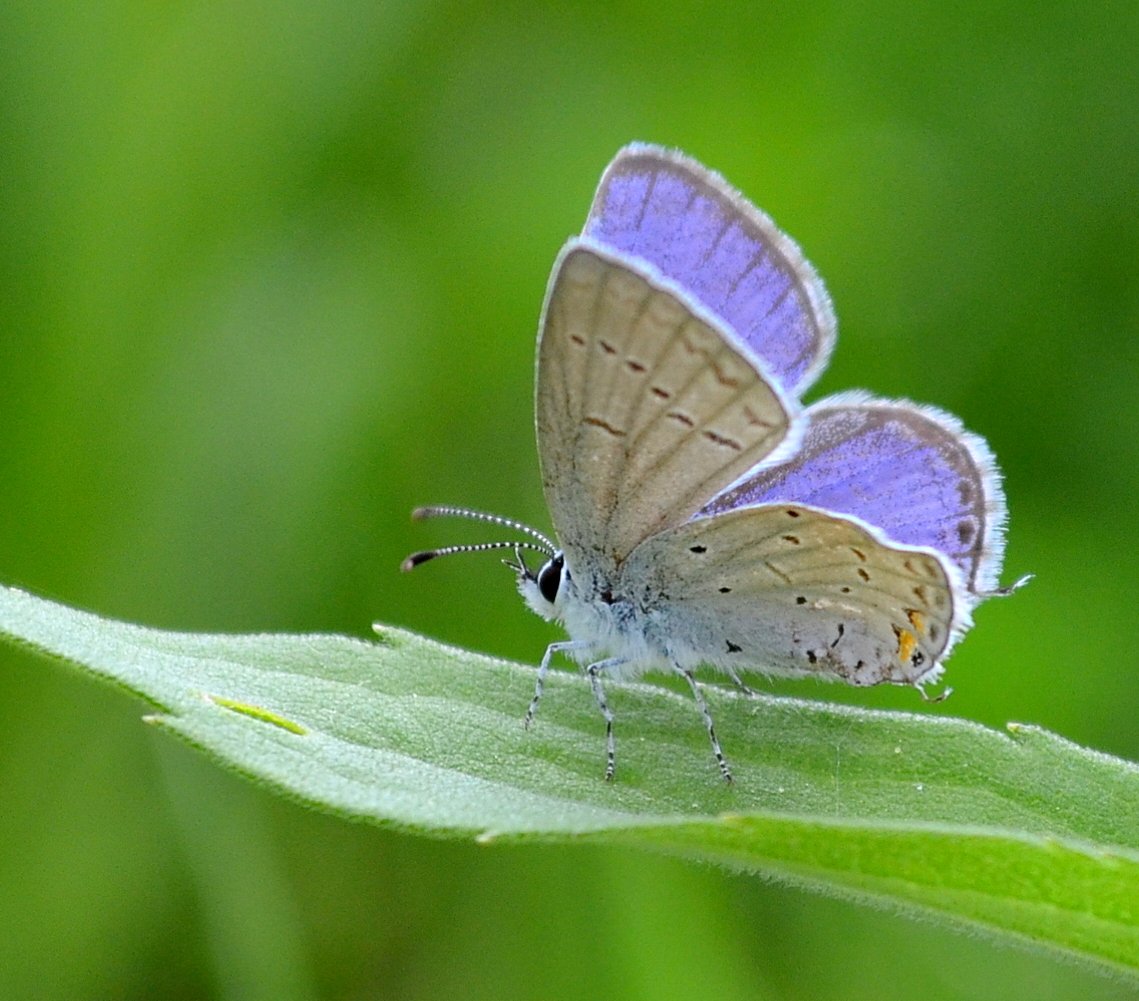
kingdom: Animalia
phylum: Arthropoda
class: Insecta
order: Lepidoptera
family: Lycaenidae
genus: Elkalyce
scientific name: Elkalyce comyntas
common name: Eastern Tailed-Blue
